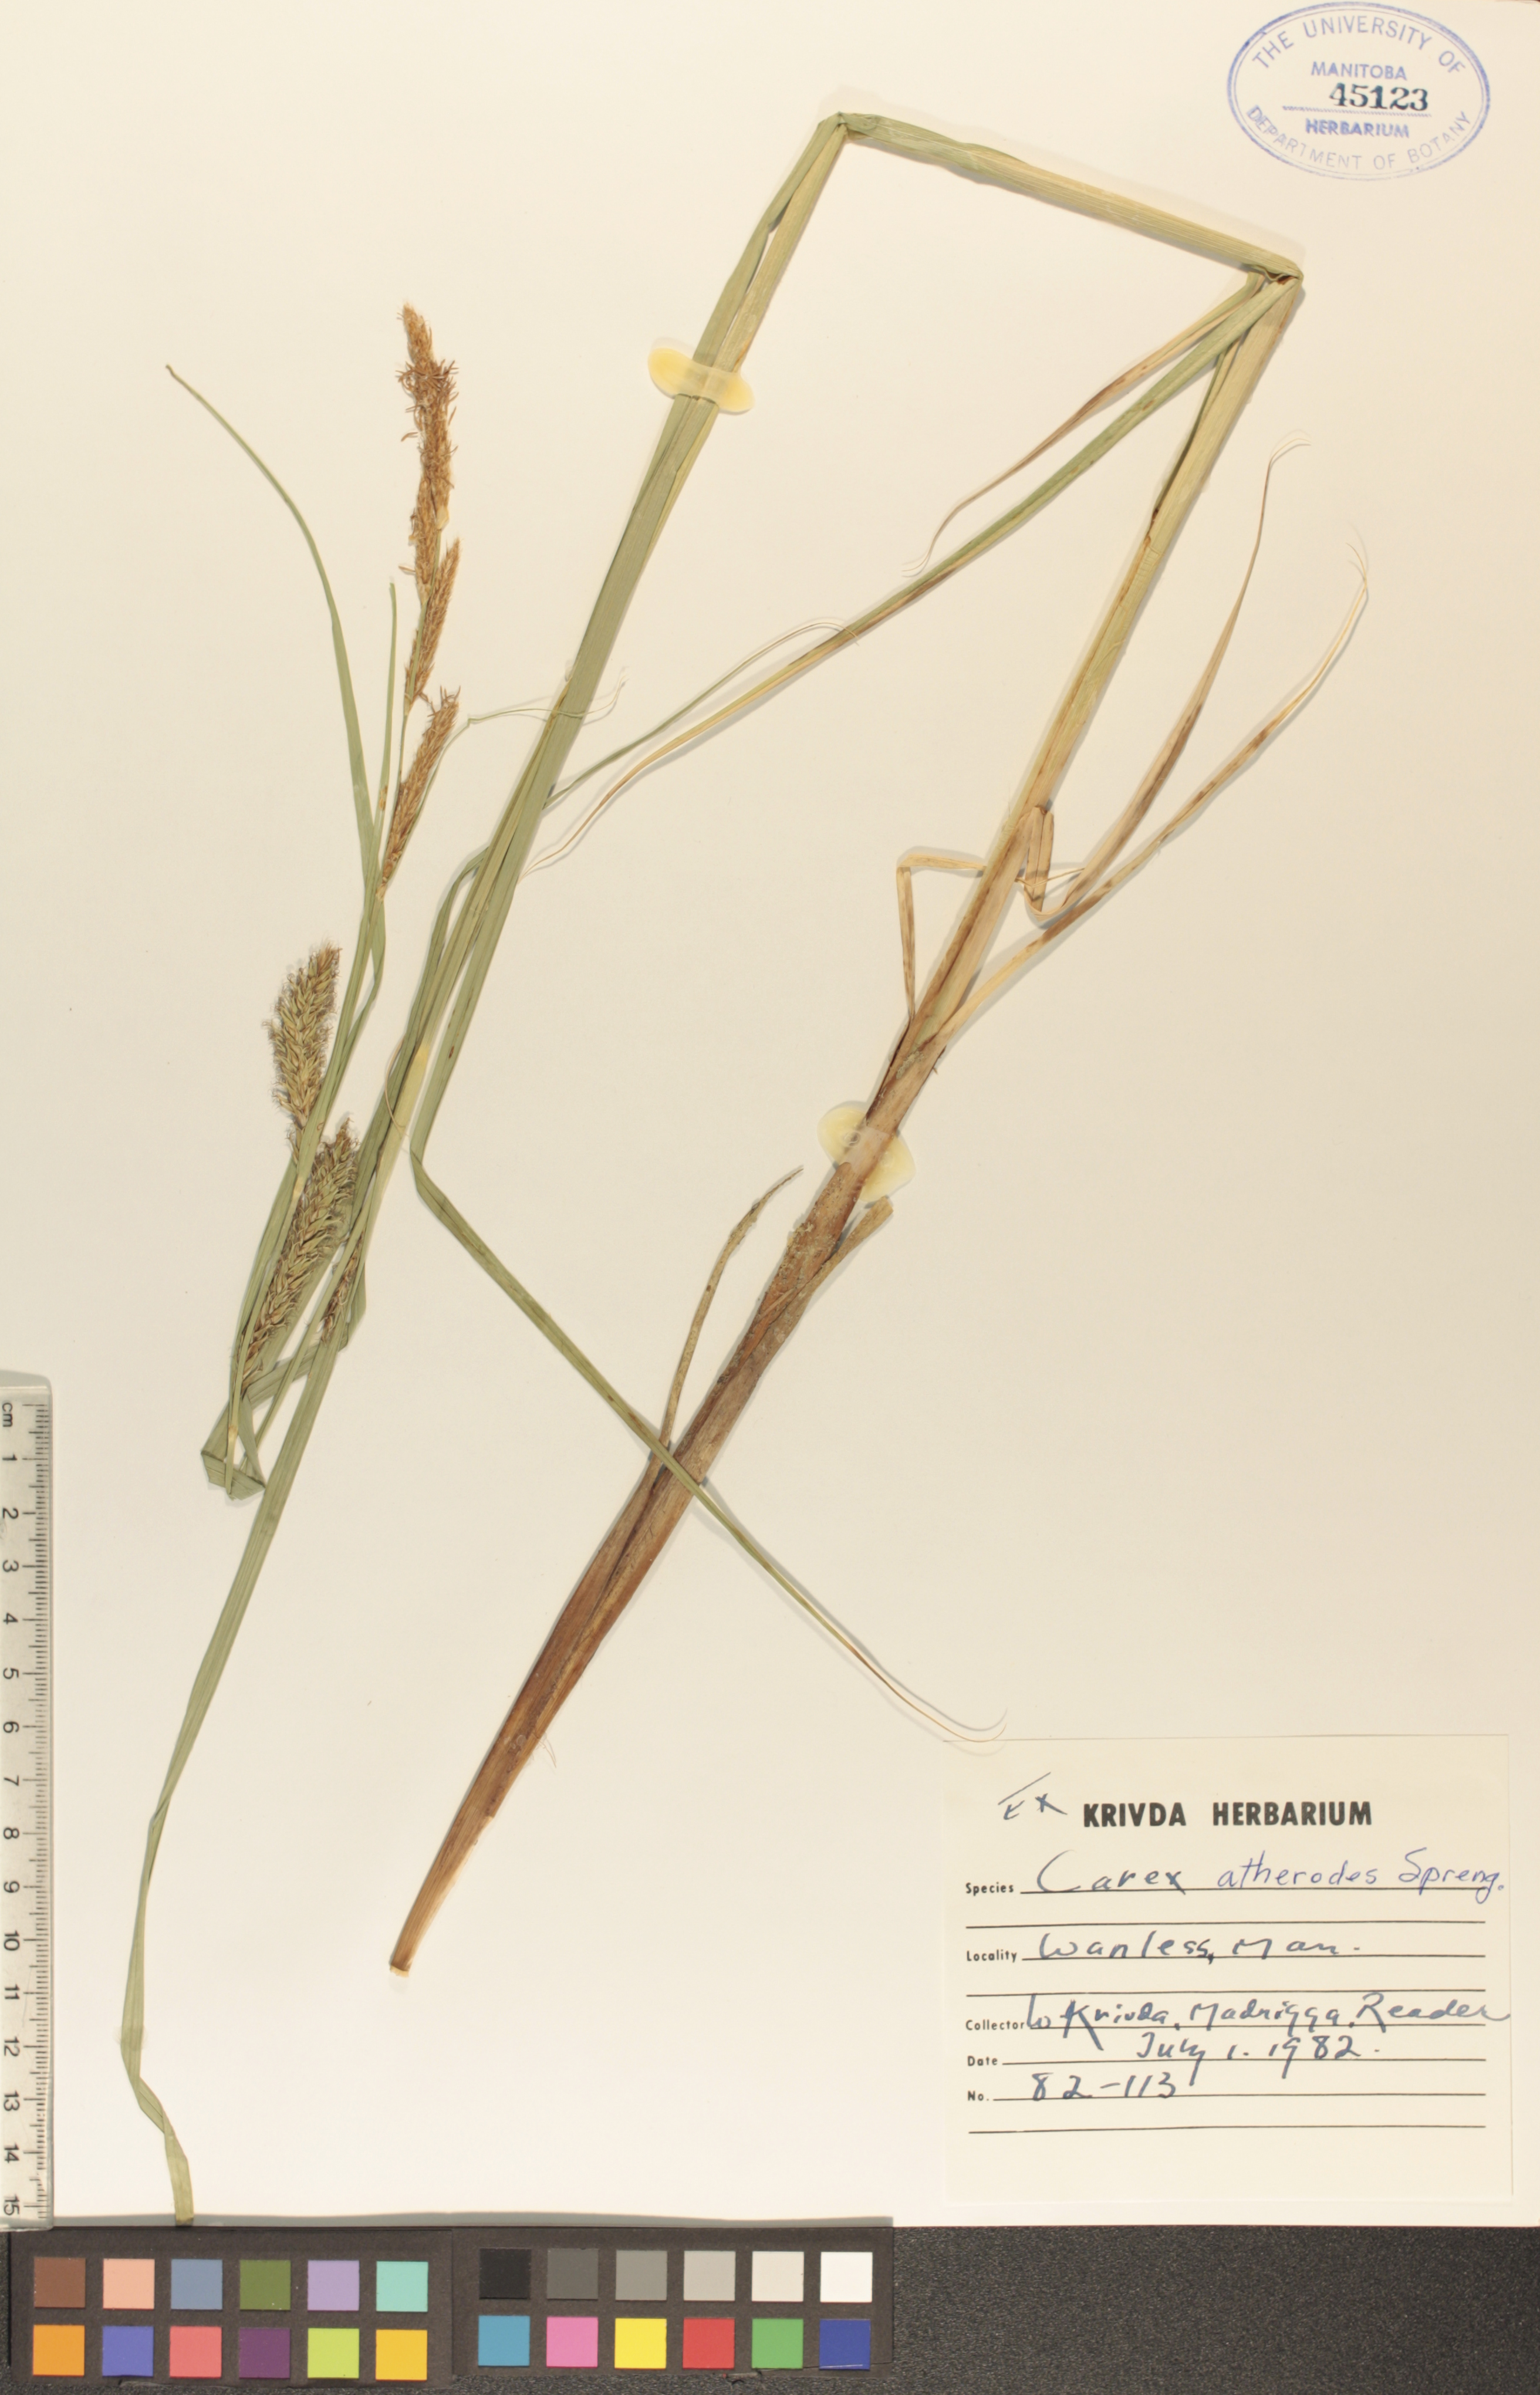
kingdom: Plantae
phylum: Tracheophyta
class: Liliopsida
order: Poales
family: Cyperaceae
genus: Carex
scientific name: Carex atherodes
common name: Wheat sedge
